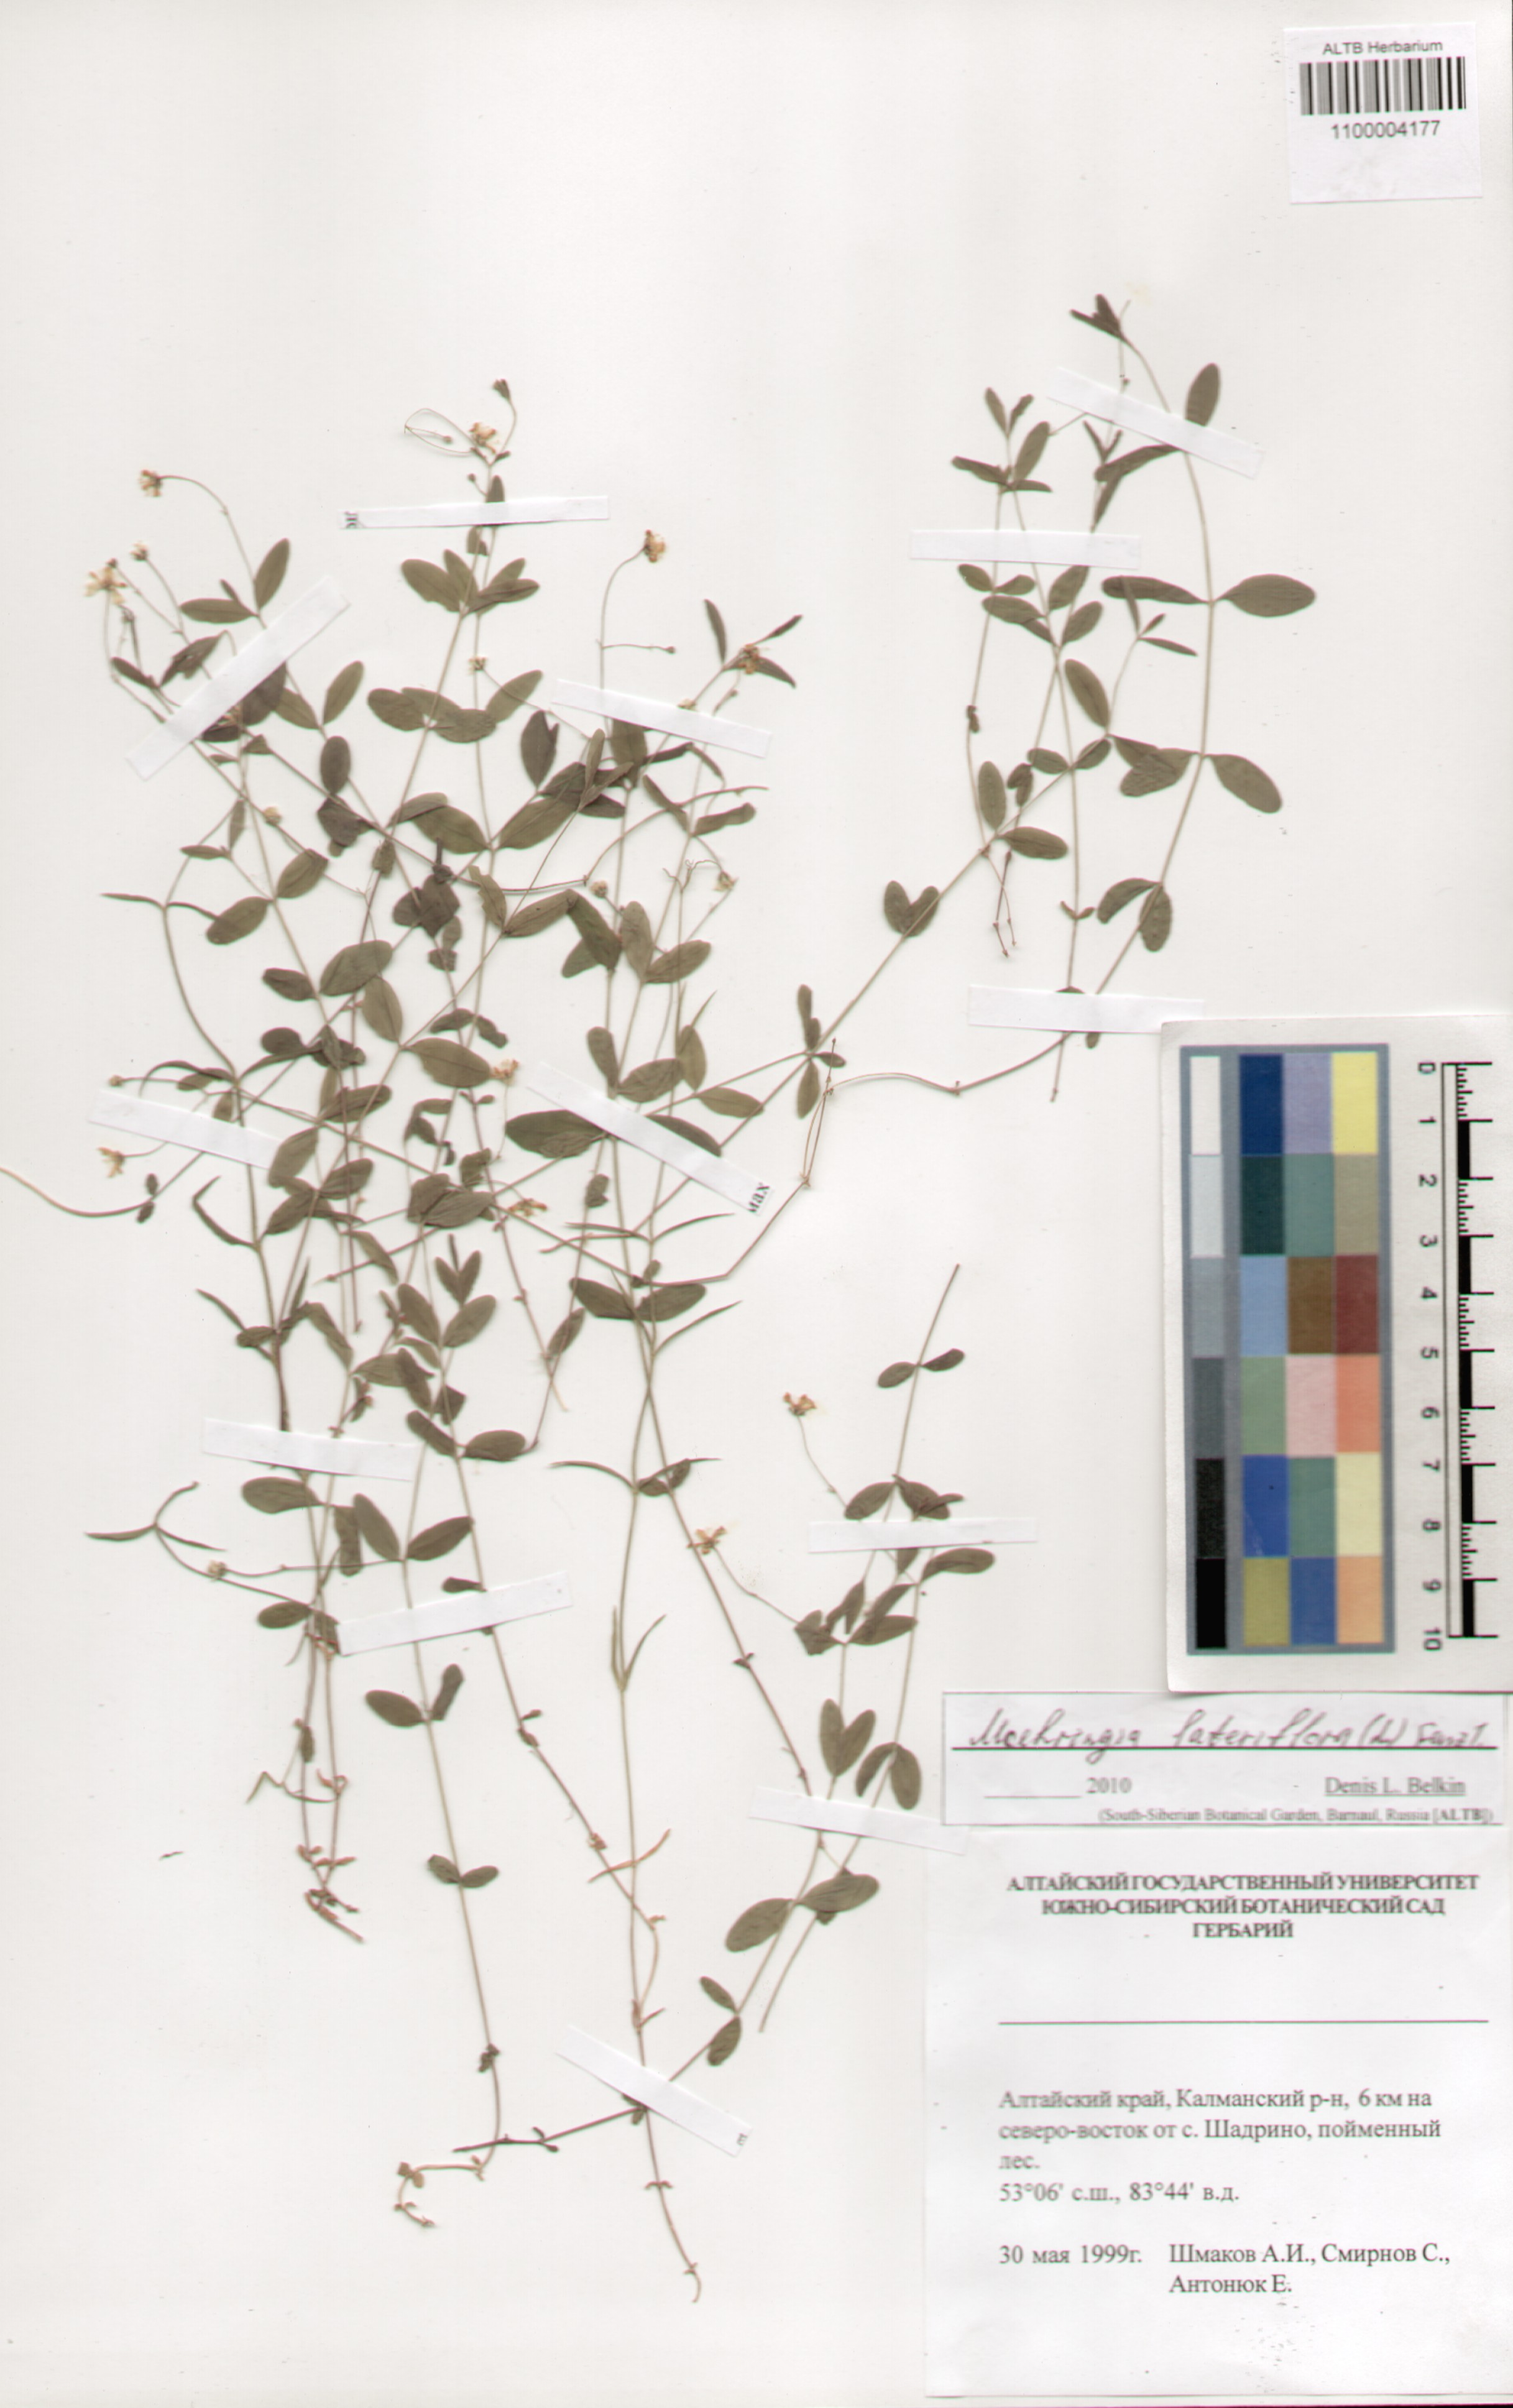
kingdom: Plantae
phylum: Tracheophyta
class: Magnoliopsida
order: Caryophyllales
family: Caryophyllaceae
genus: Moehringia
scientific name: Moehringia lateriflora
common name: Blunt-leaved sandwort
